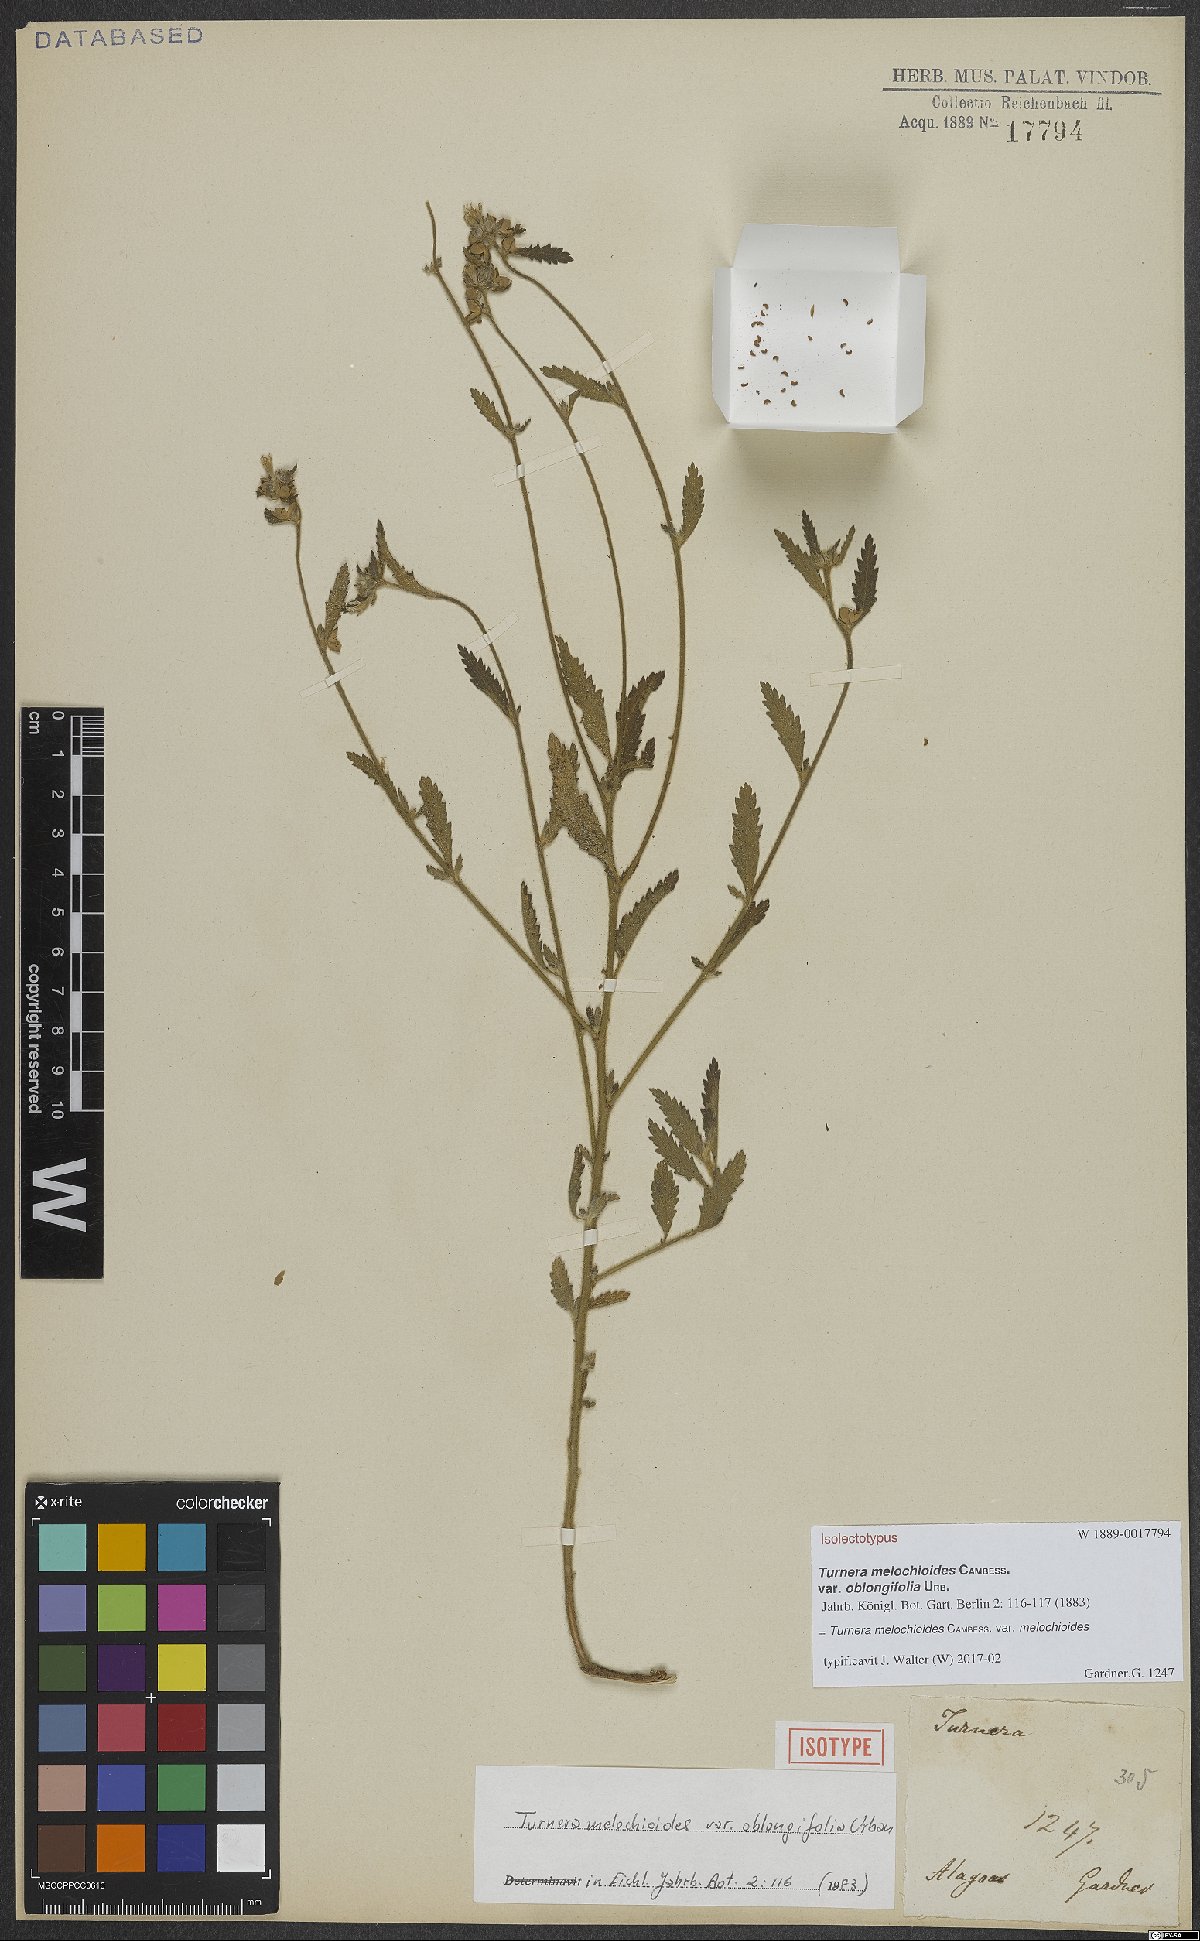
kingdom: Plantae
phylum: Tracheophyta
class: Magnoliopsida
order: Malpighiales
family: Turneraceae
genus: Turnera
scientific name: Turnera melochioides
